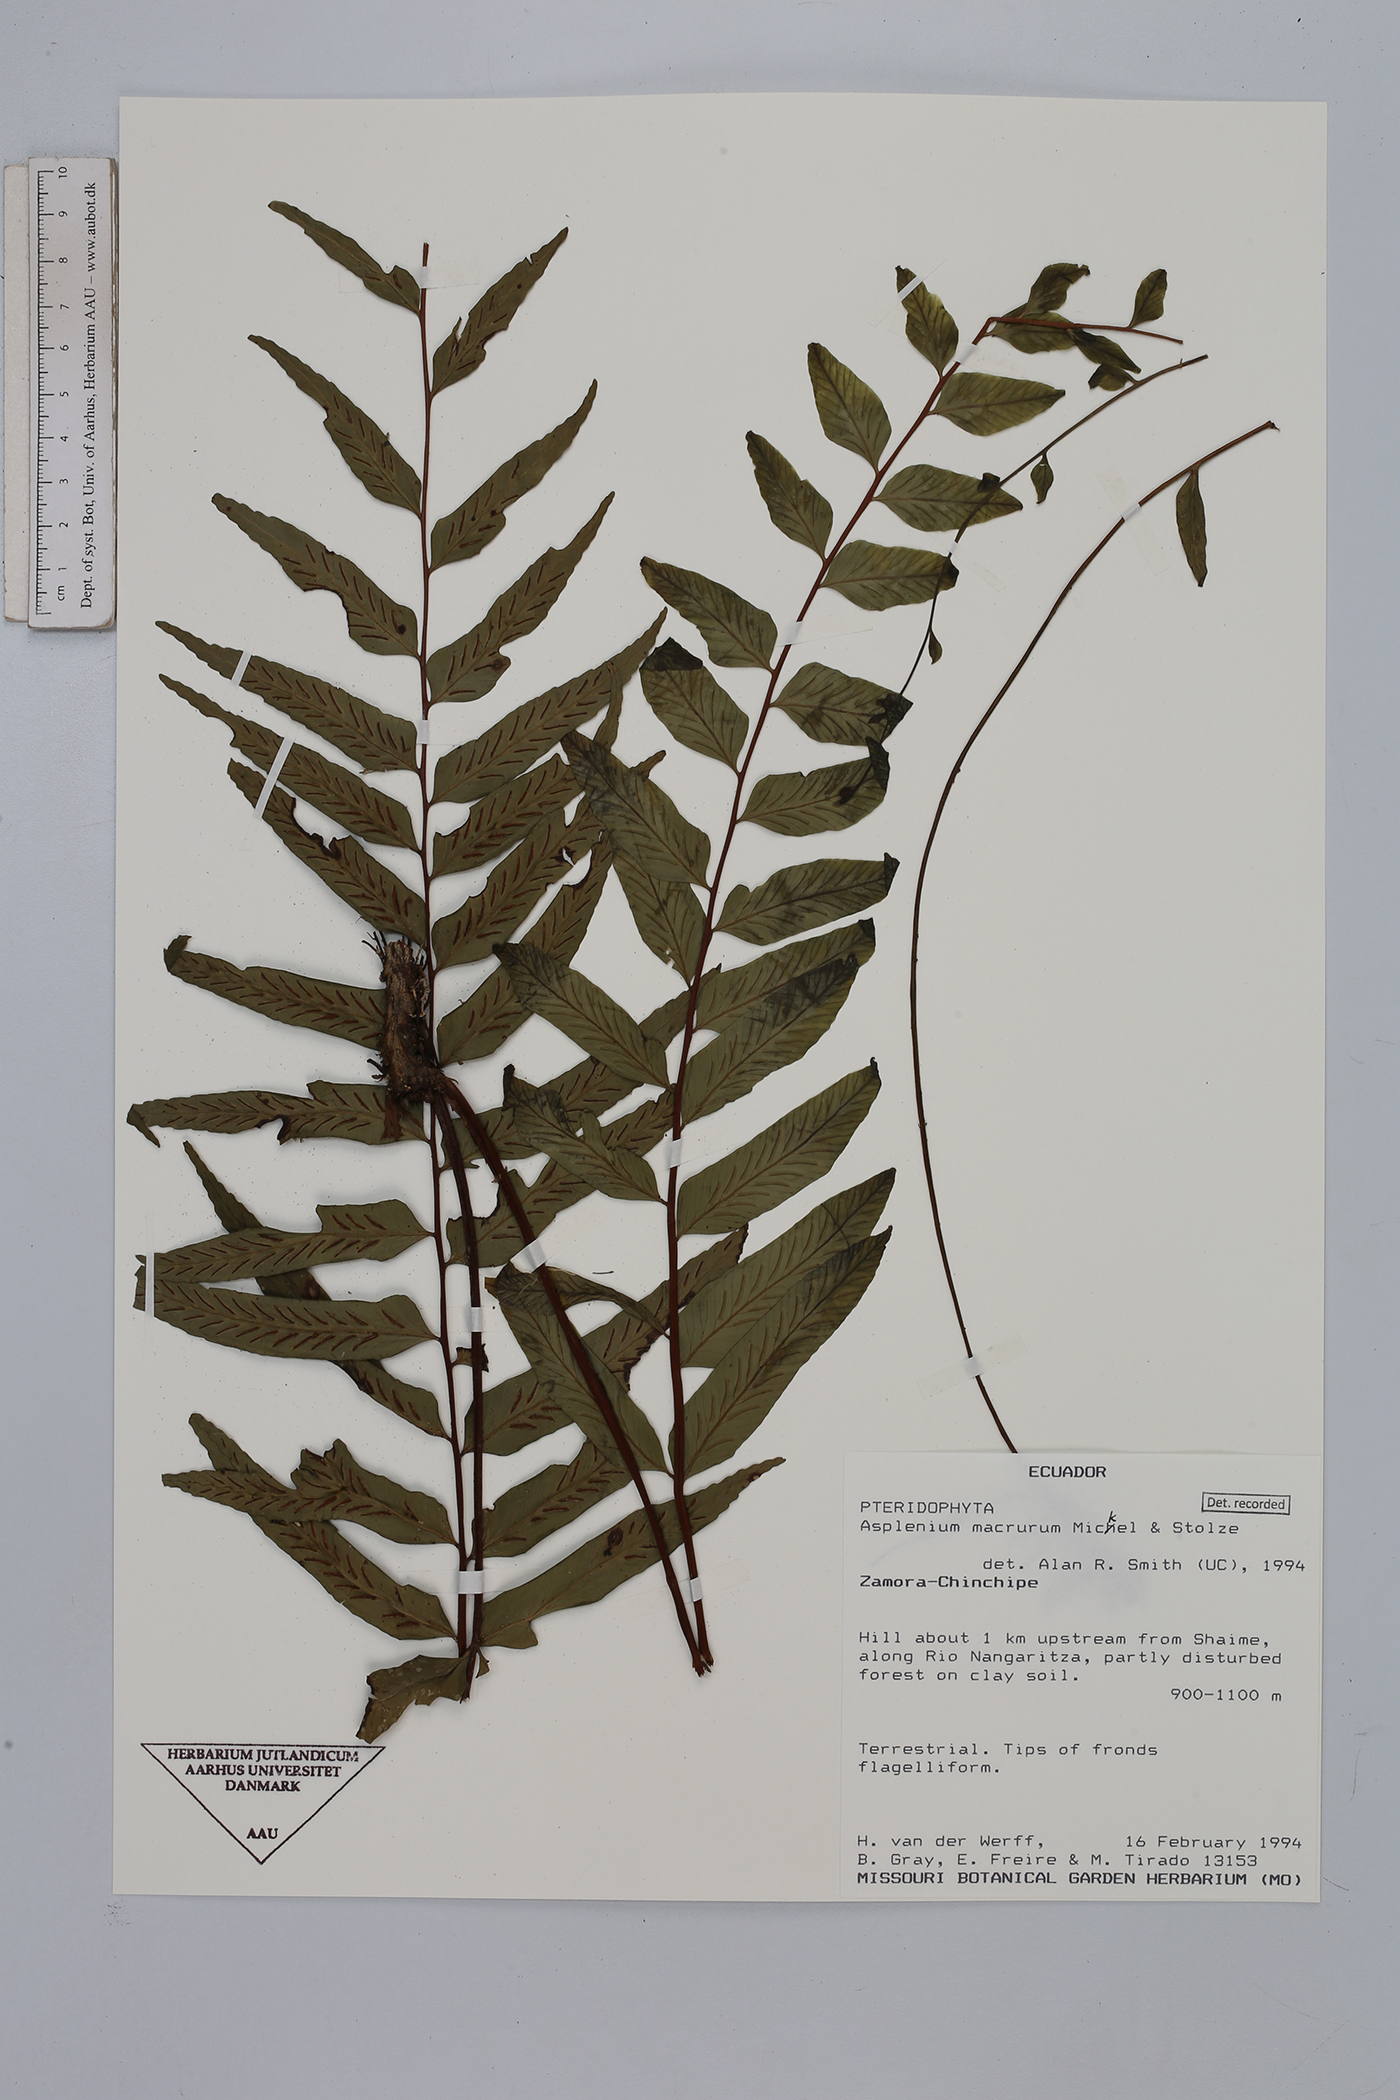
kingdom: Plantae
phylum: Tracheophyta
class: Polypodiopsida
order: Polypodiales
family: Aspleniaceae
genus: Asplenium
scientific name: Asplenium macrurum
